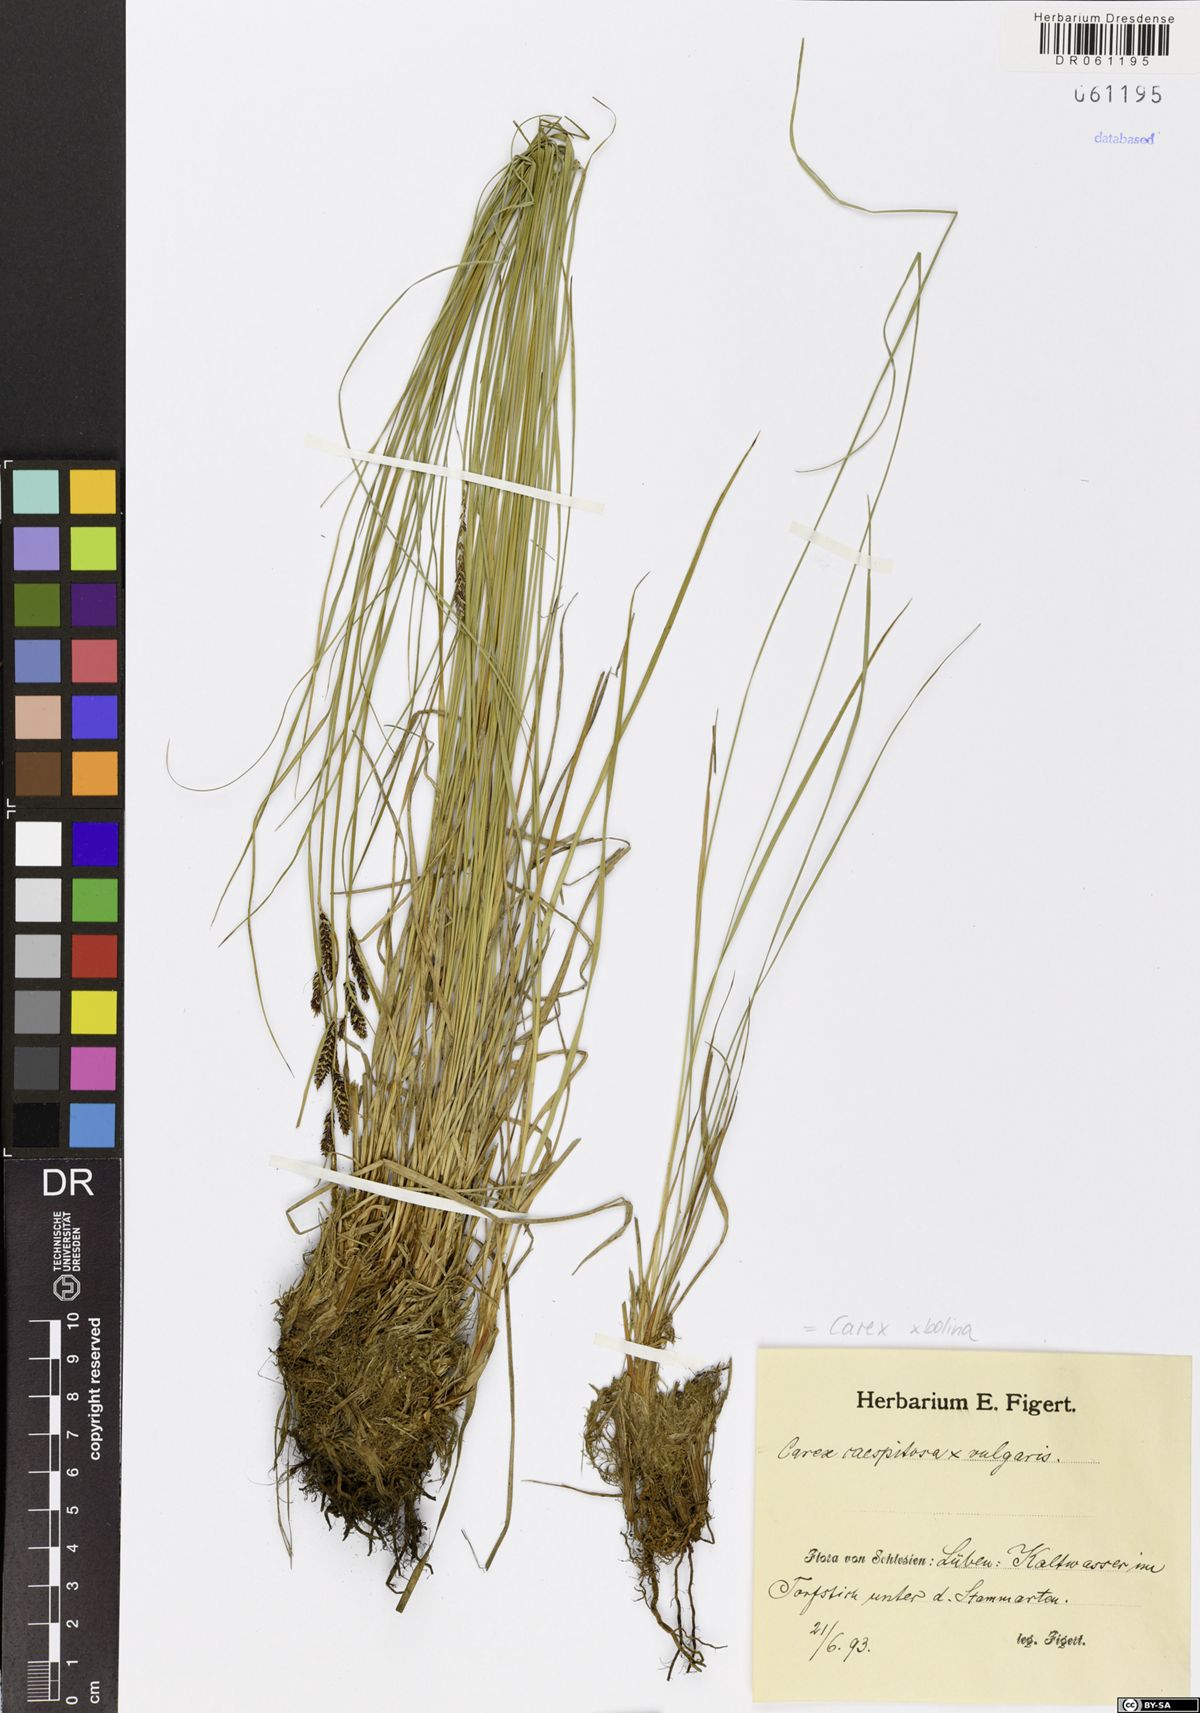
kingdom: Plantae
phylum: Tracheophyta
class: Liliopsida
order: Poales
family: Cyperaceae
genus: Carex
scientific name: Carex bolina
